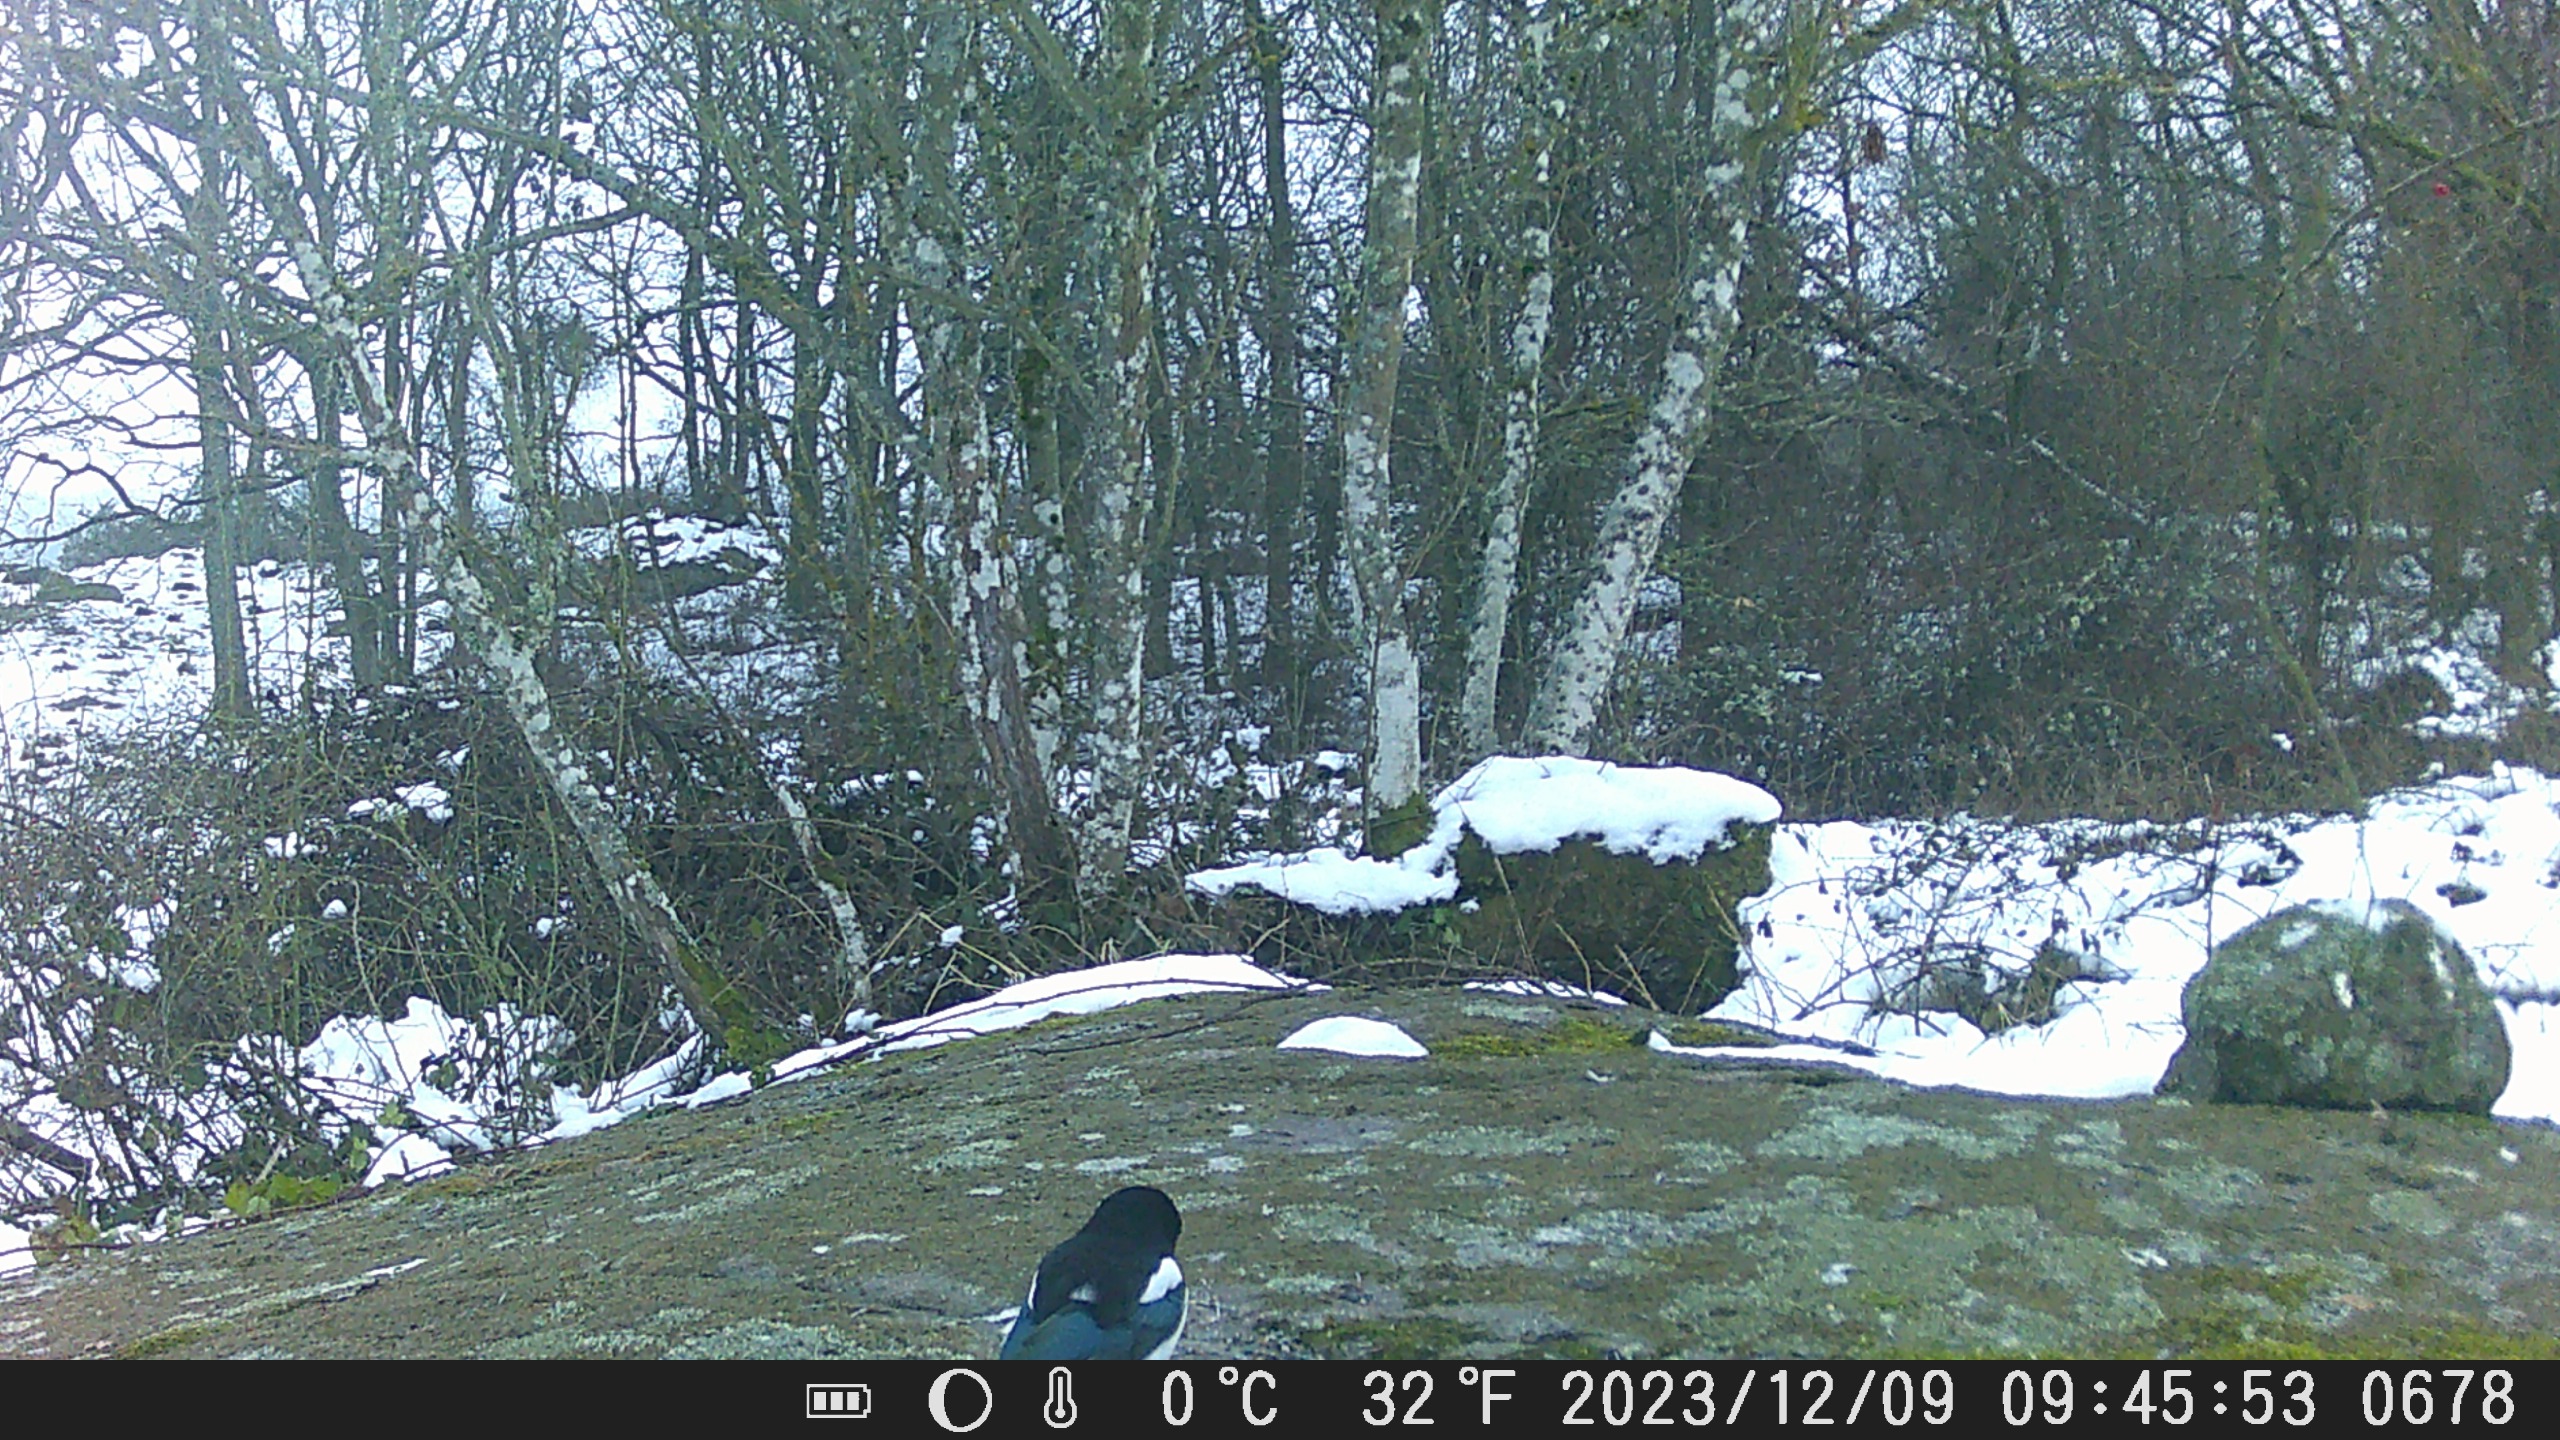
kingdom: Animalia
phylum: Chordata
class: Aves
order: Passeriformes
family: Corvidae
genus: Pica
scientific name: Pica pica
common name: Husskade
